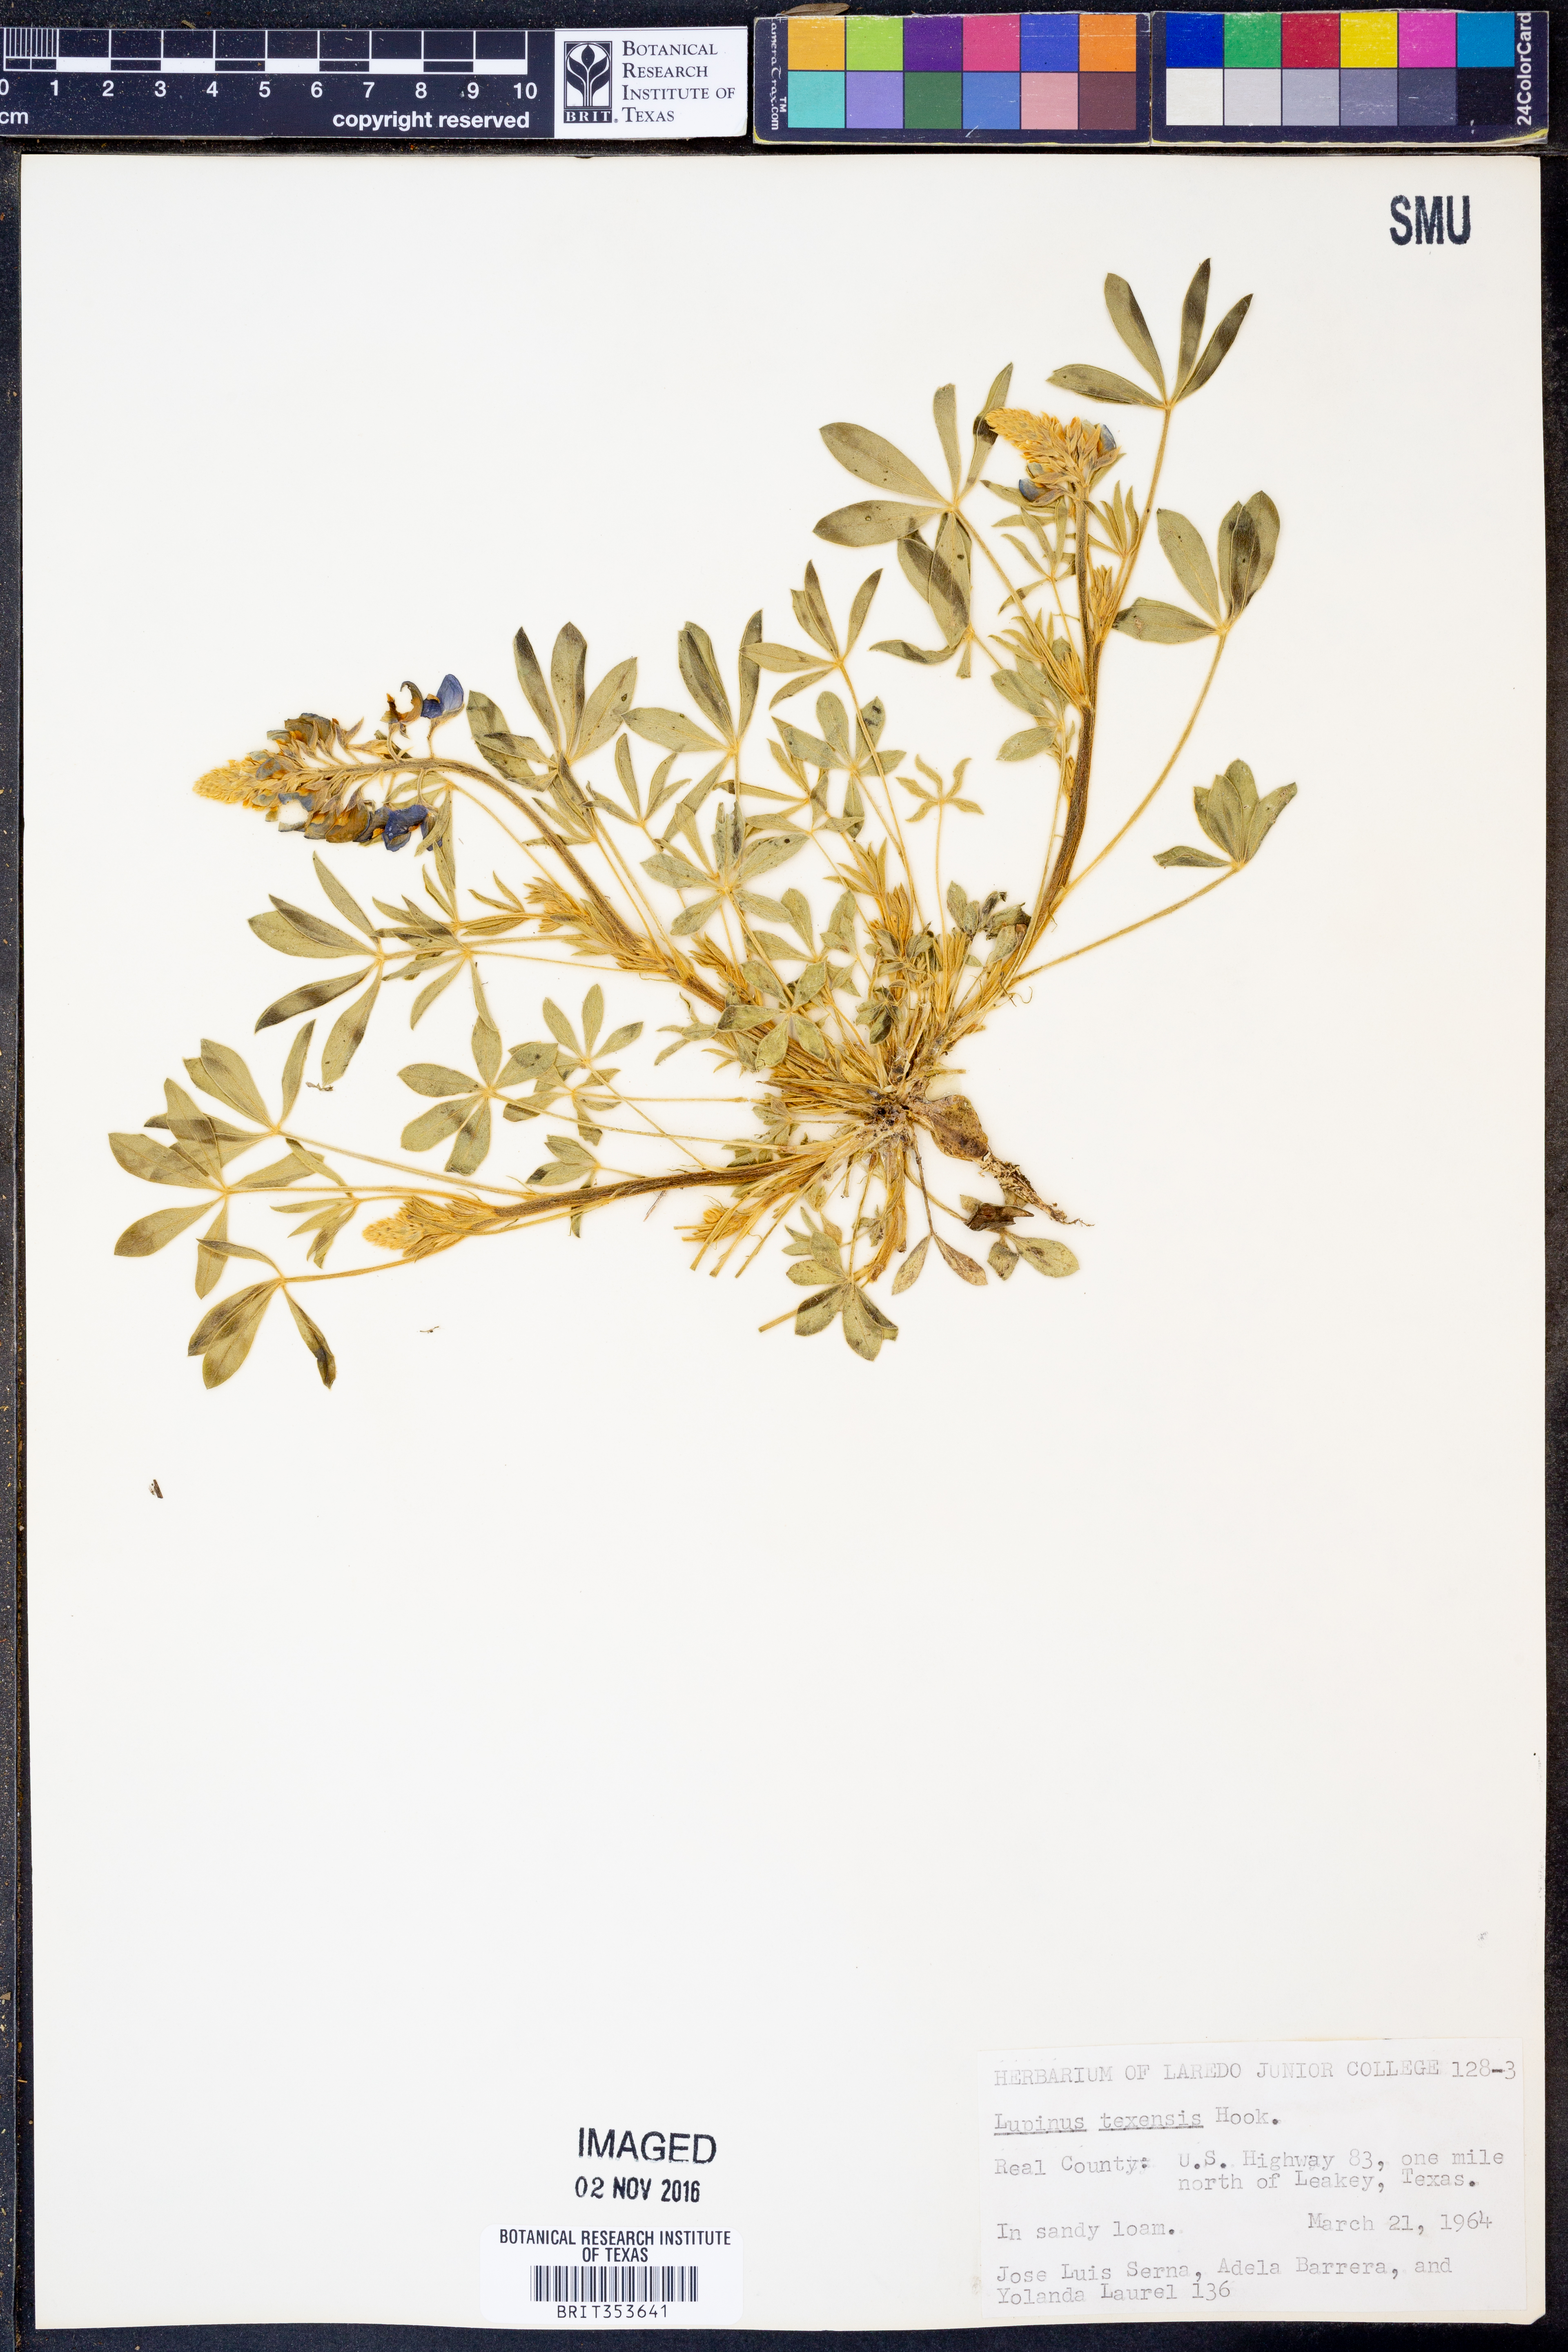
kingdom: Plantae
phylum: Tracheophyta
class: Magnoliopsida
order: Fabales
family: Fabaceae
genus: Lupinus
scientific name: Lupinus texensis
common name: Texas bluebonnet
